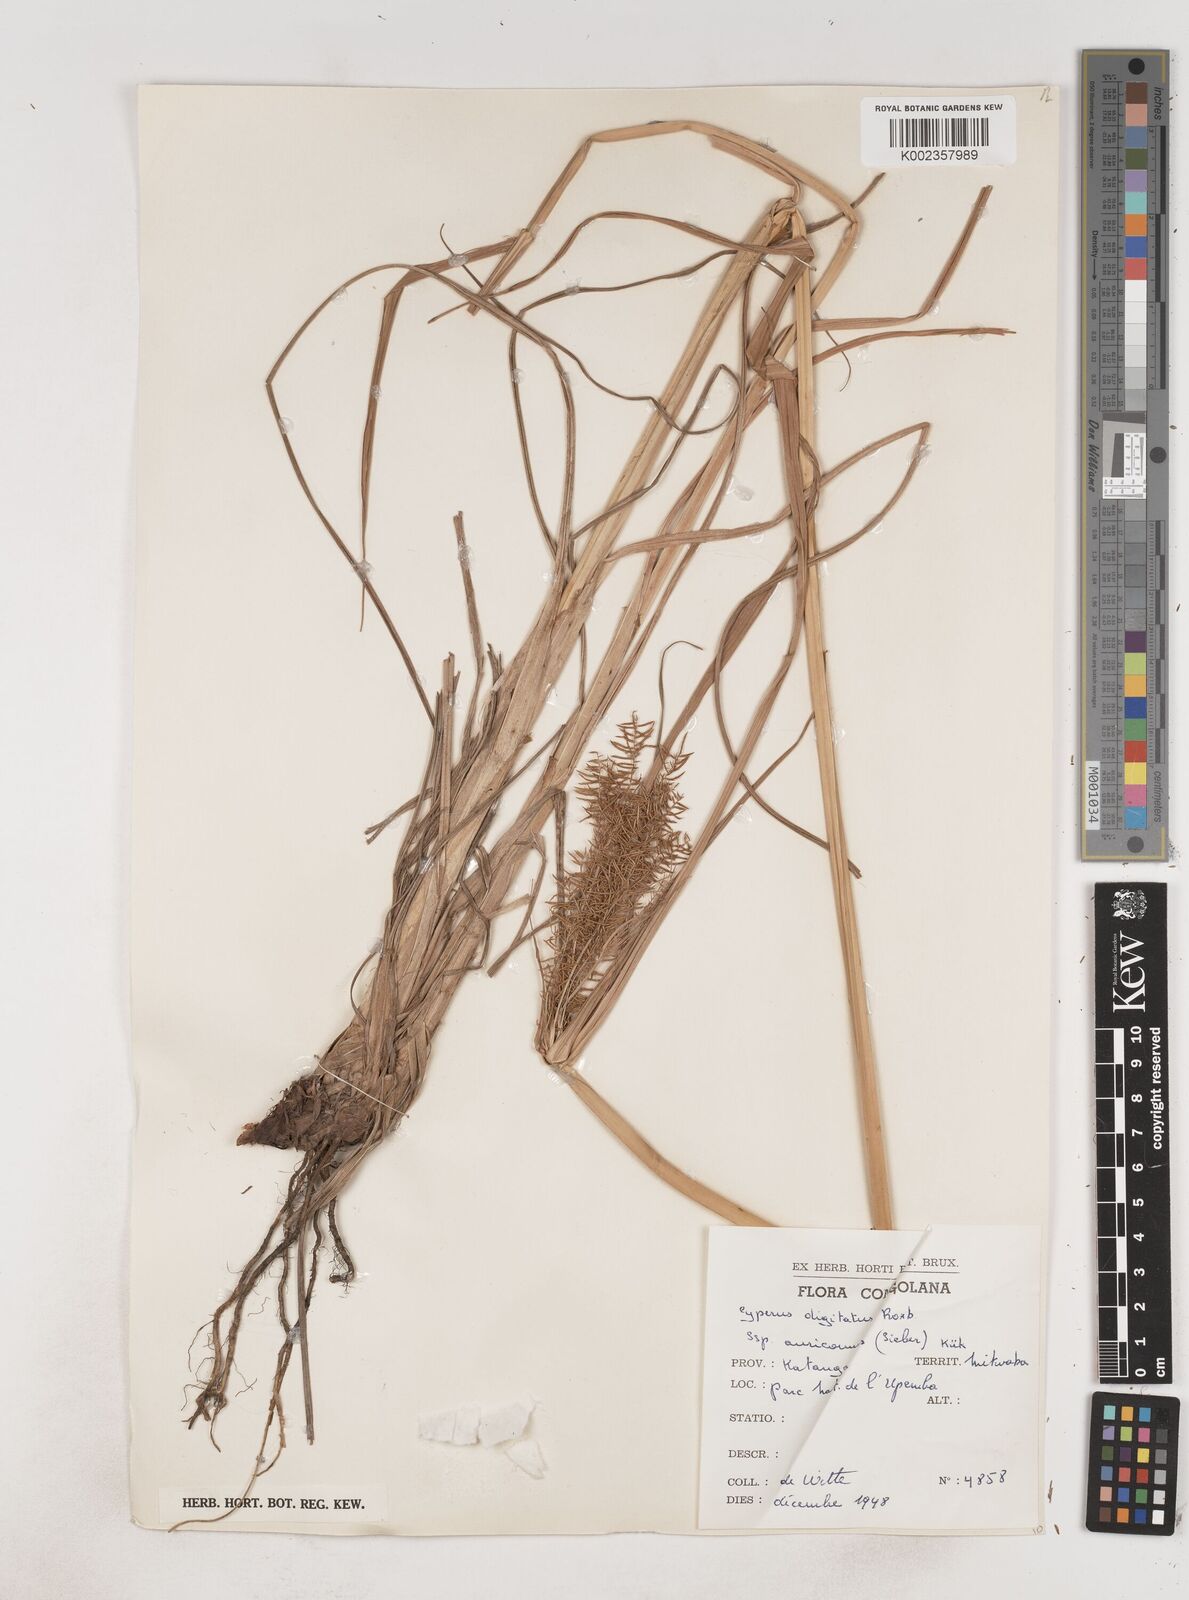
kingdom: Plantae
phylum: Tracheophyta
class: Liliopsida
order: Poales
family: Cyperaceae
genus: Cyperus
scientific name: Cyperus digitatus
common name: Finger flatsedge
